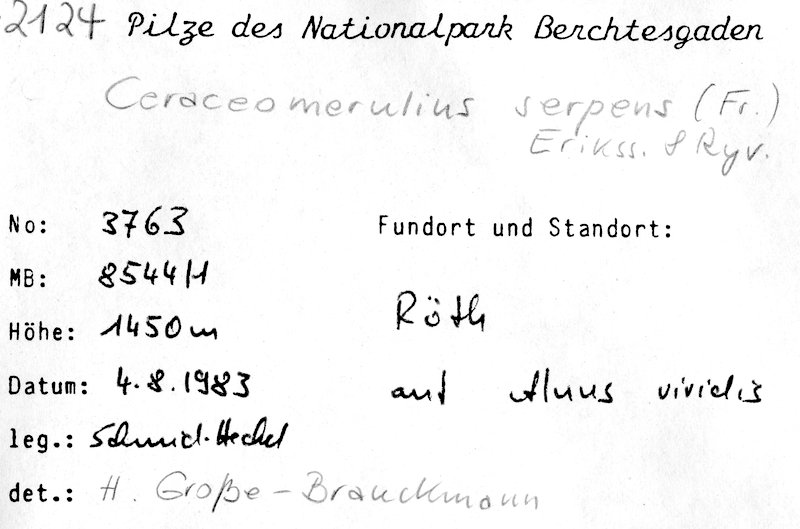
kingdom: Plantae
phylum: Tracheophyta
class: Magnoliopsida
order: Fagales
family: Betulaceae
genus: Alnus
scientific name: Alnus alnobetula
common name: Green alder
